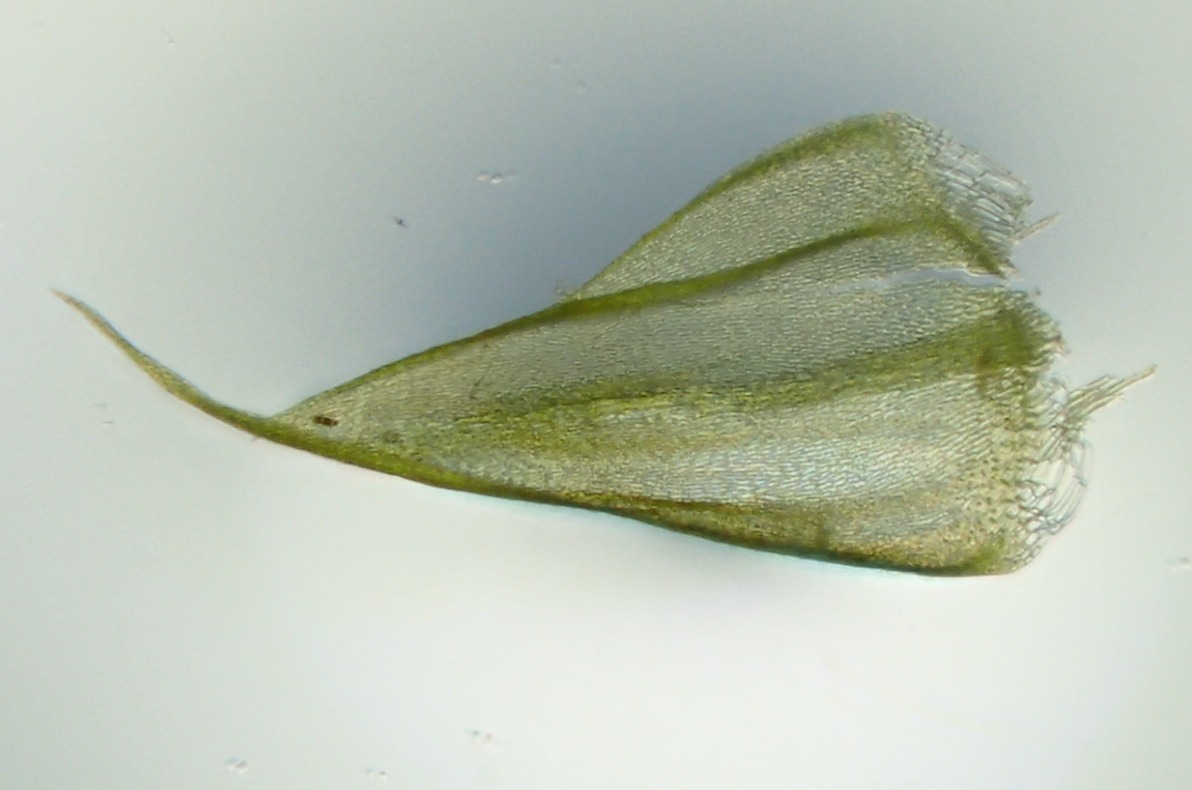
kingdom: Plantae
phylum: Bryophyta
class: Bryopsida
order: Hypnales
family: Amblystegiaceae
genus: Drepanocladus
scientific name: Drepanocladus aduncus
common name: Kær-seglmos
